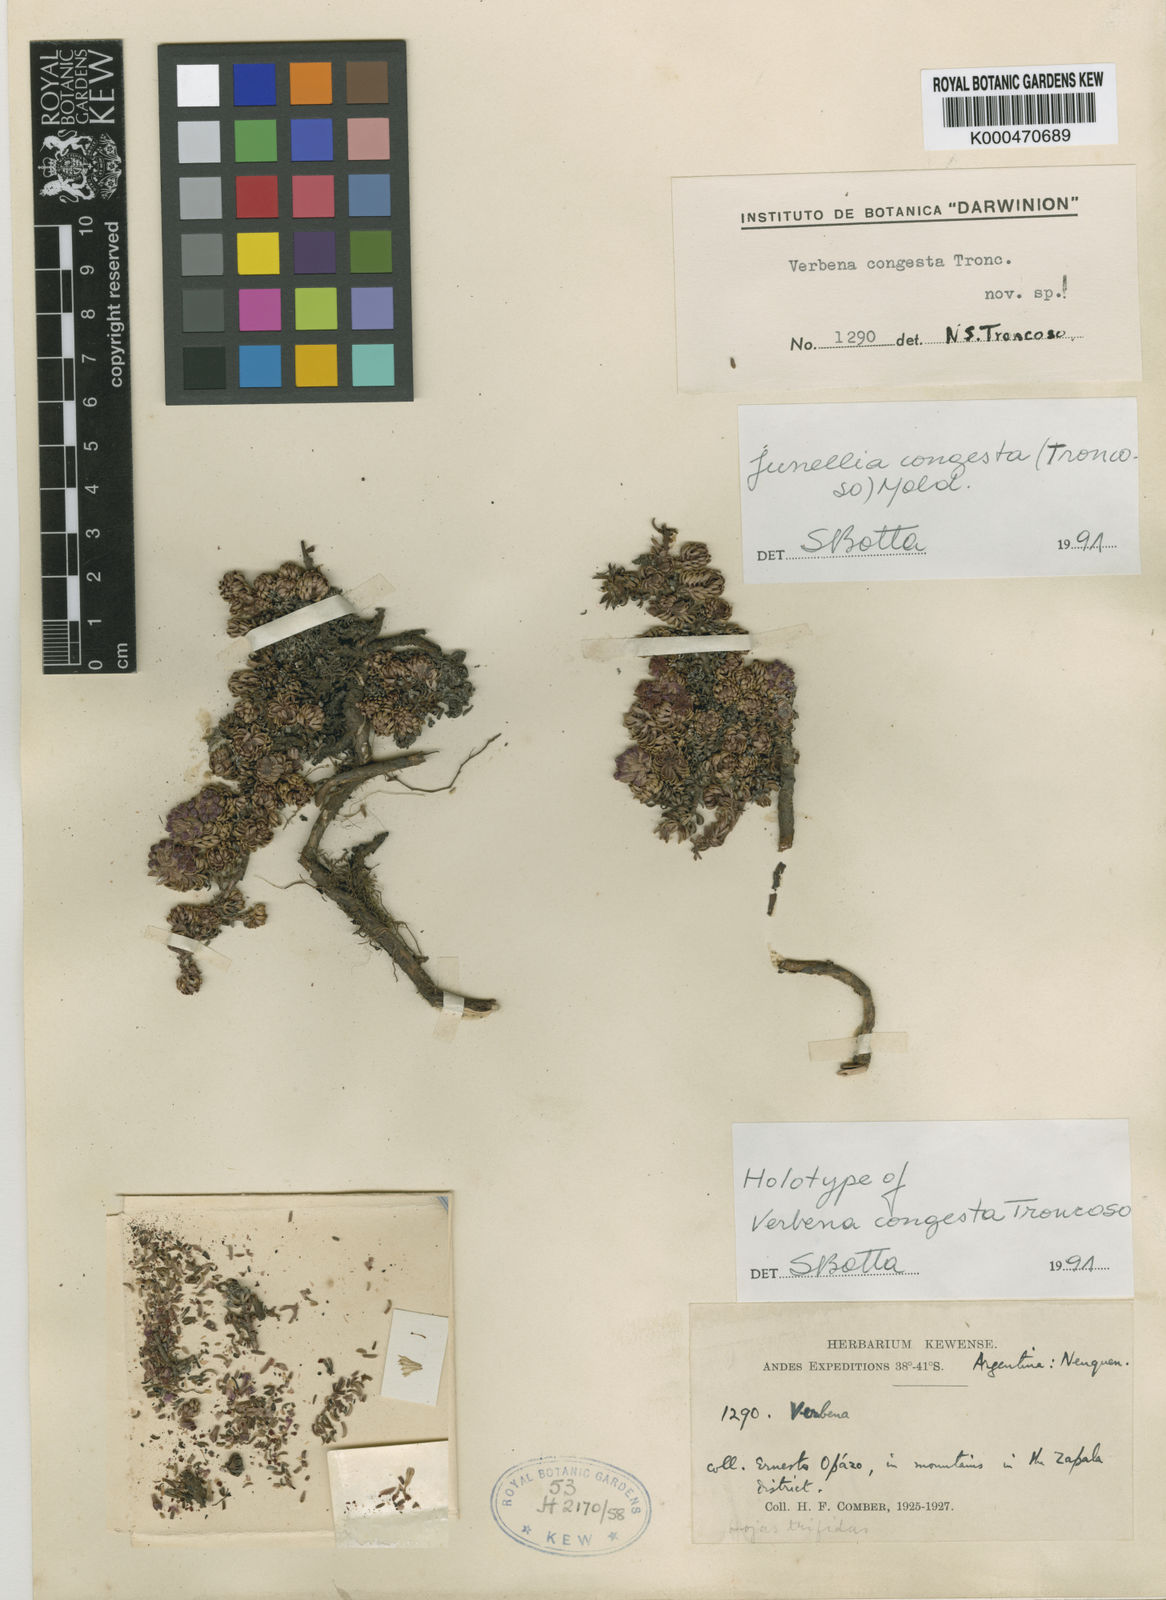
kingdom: Plantae
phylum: Tracheophyta
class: Magnoliopsida
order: Lamiales
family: Verbenaceae
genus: Junellia
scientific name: Junellia congesta
